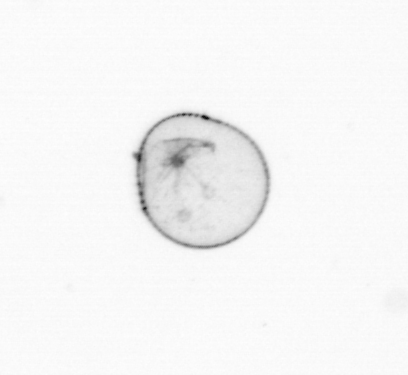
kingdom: Chromista
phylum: Myzozoa
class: Dinophyceae
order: Noctilucales
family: Noctilucaceae
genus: Noctiluca
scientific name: Noctiluca scintillans
